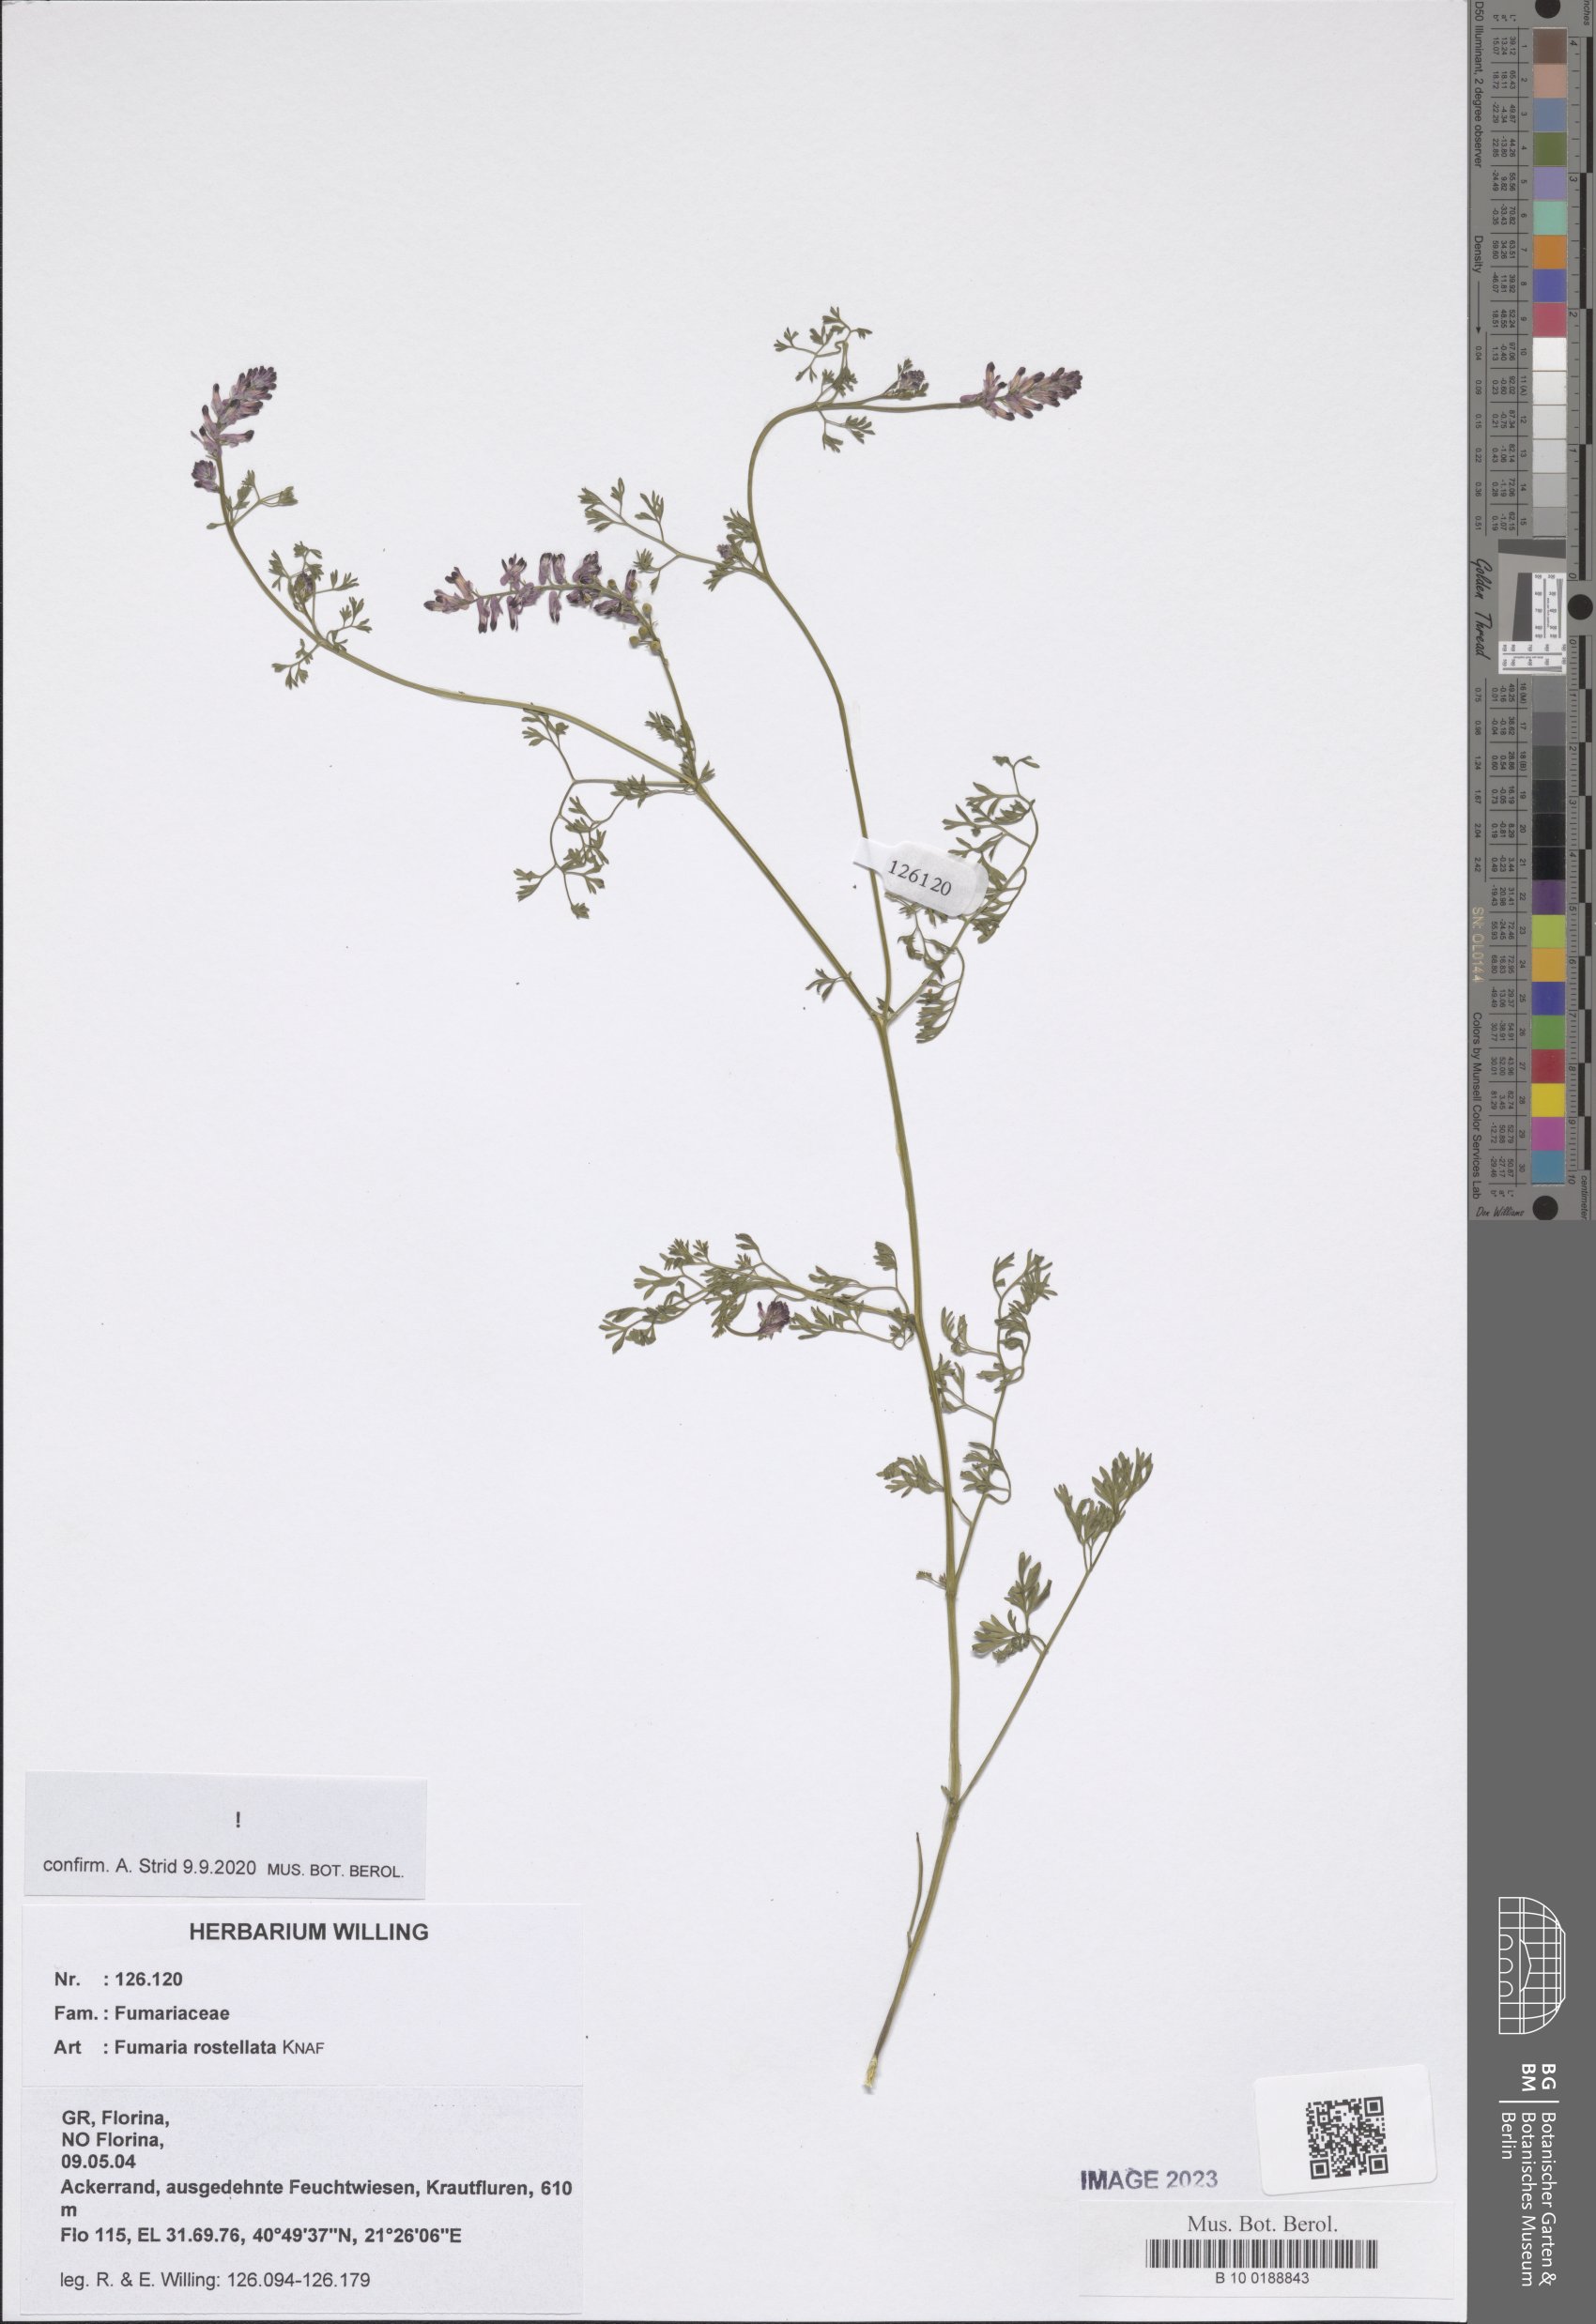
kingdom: Plantae
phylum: Tracheophyta
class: Magnoliopsida
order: Ranunculales
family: Papaveraceae
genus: Fumaria
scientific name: Fumaria rostellata
